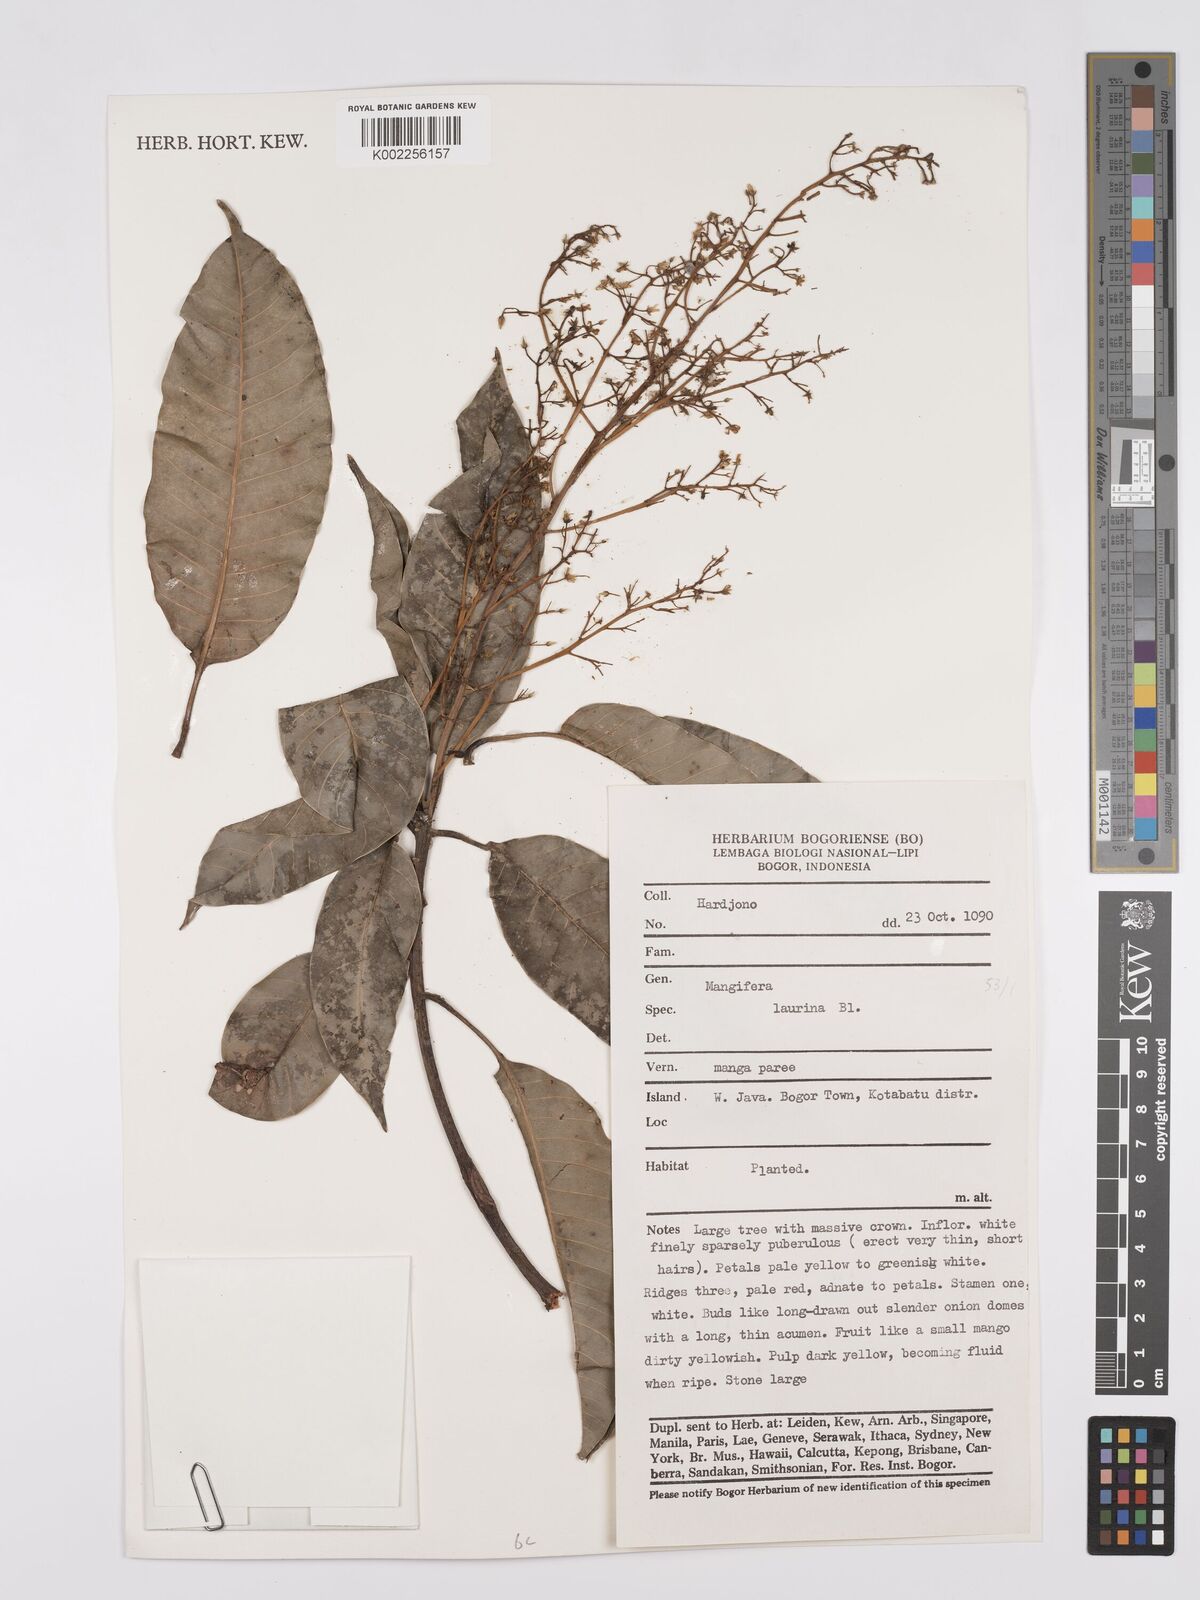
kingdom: Plantae
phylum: Tracheophyta
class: Magnoliopsida
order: Sapindales
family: Anacardiaceae
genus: Mangifera
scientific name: Mangifera laurina
